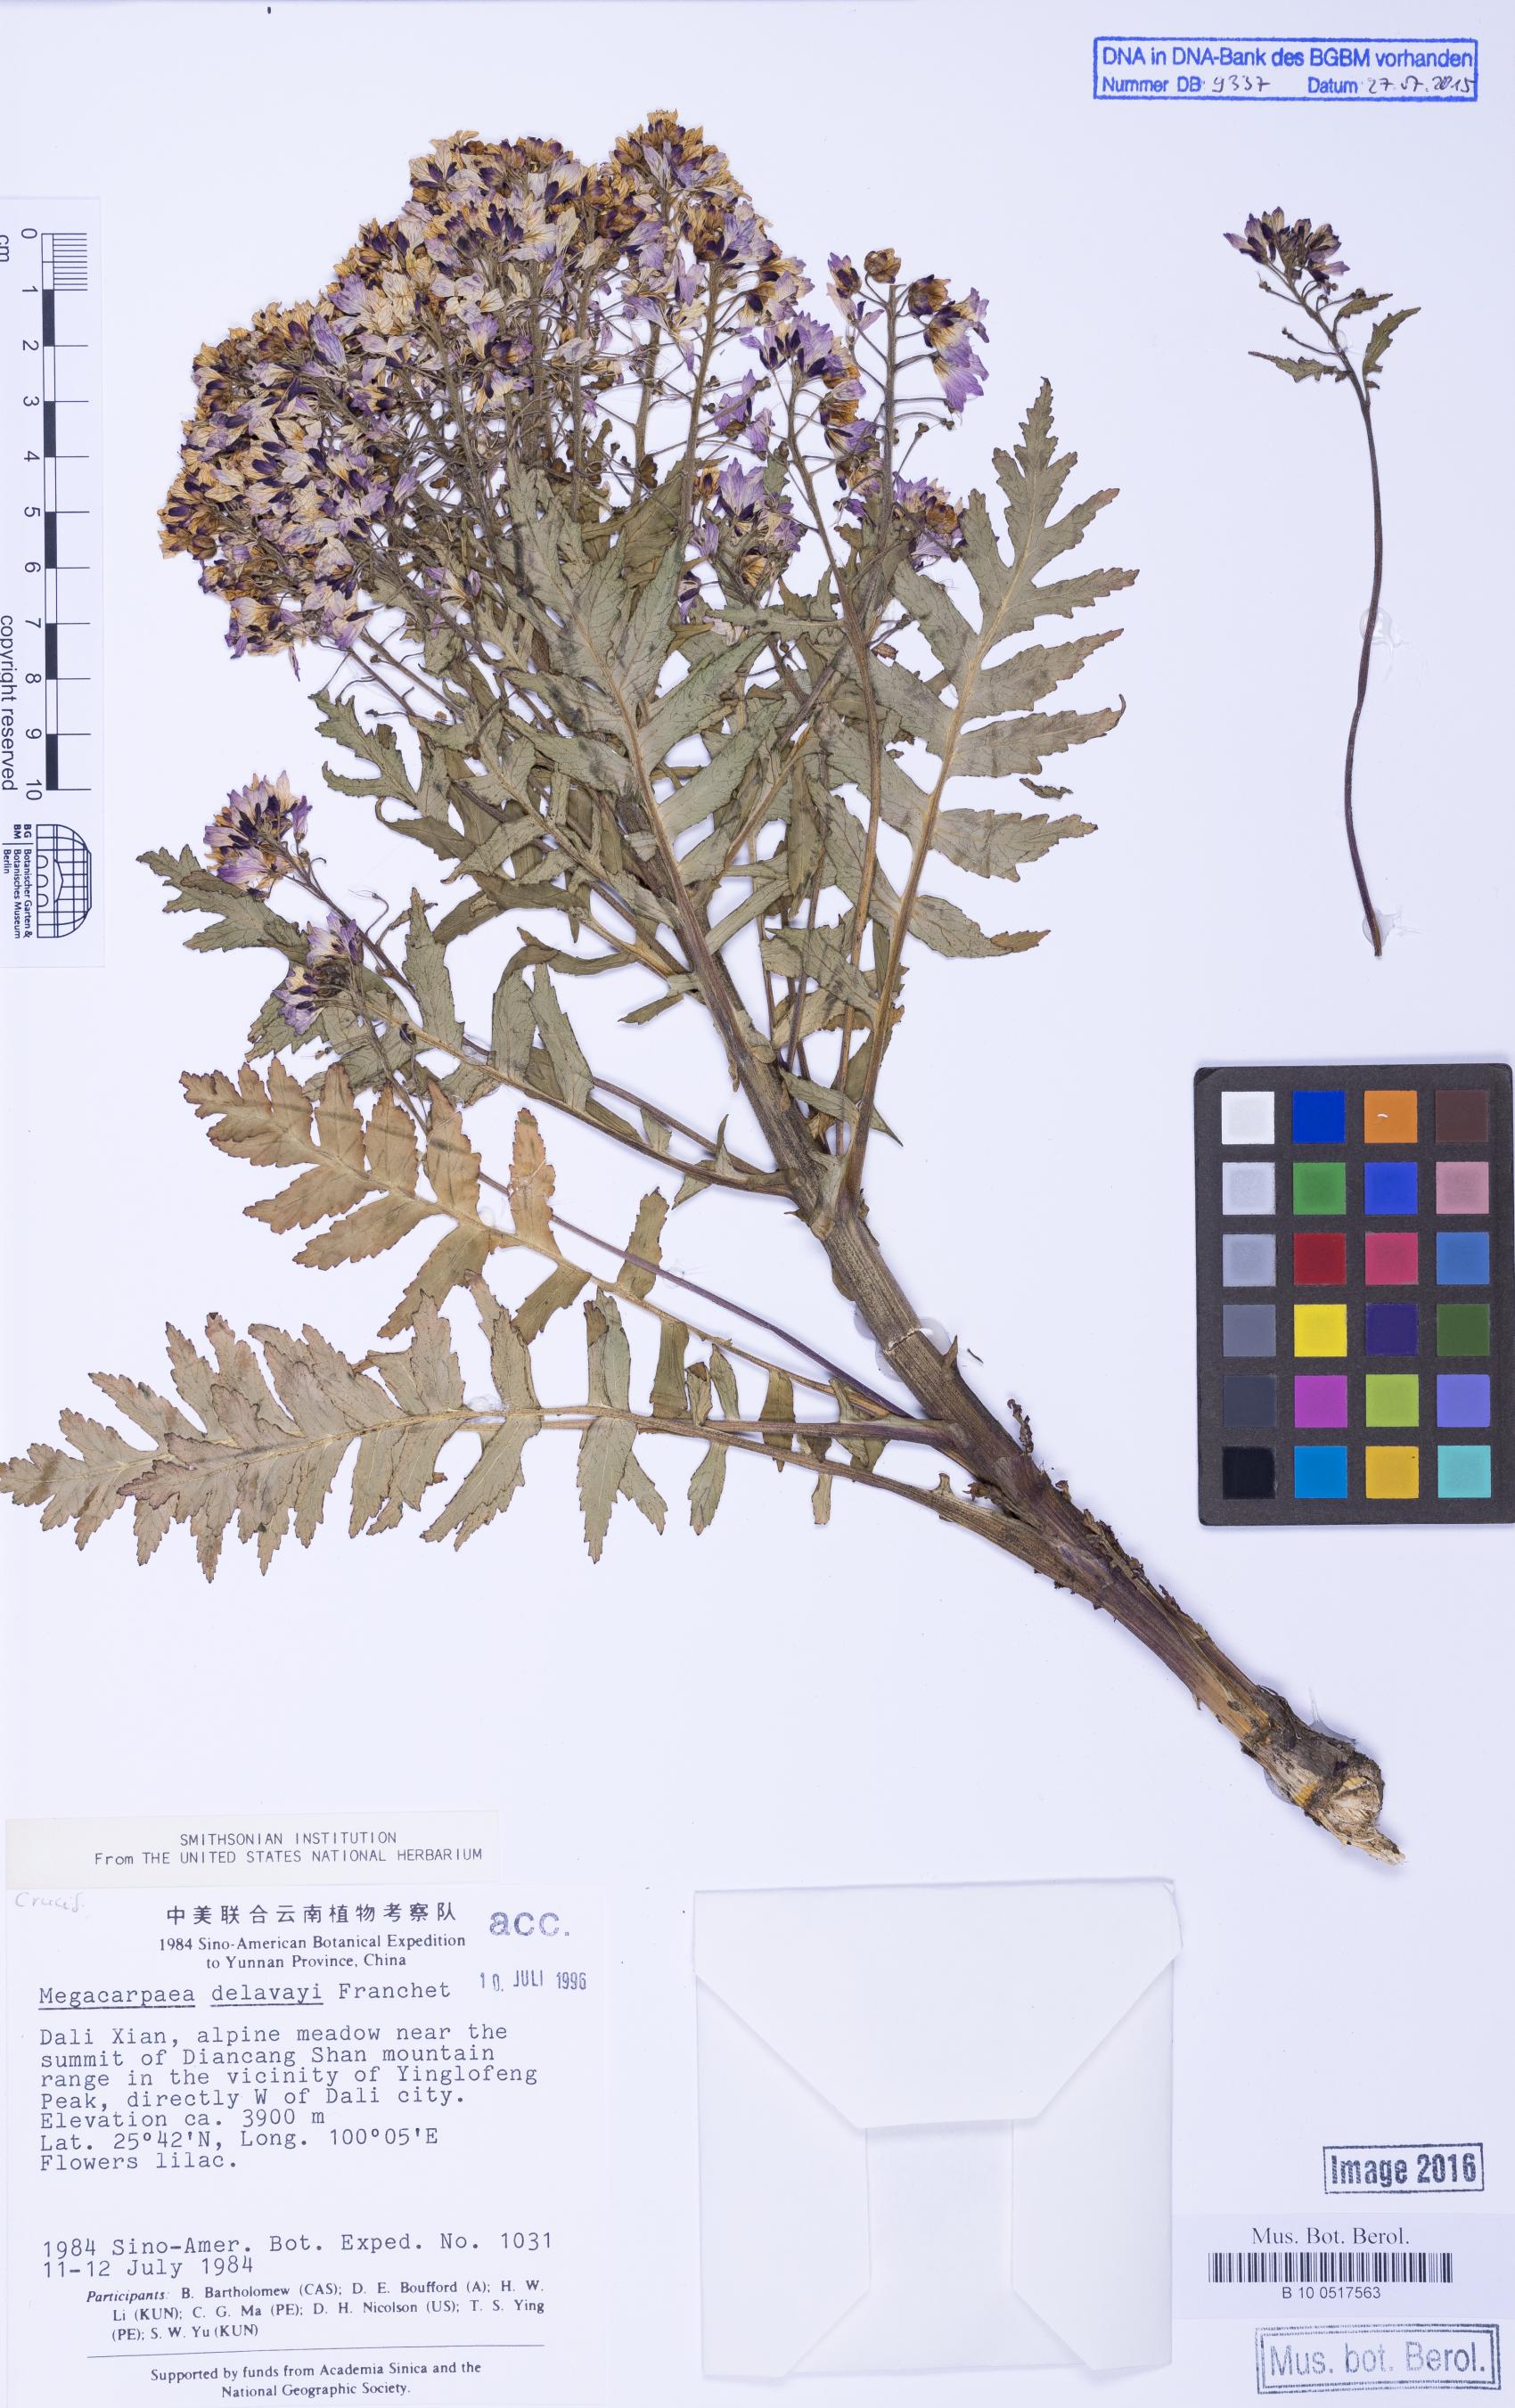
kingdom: Plantae
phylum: Tracheophyta
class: Magnoliopsida
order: Brassicales
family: Brassicaceae
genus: Megacarpaea
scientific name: Megacarpaea delavayi
